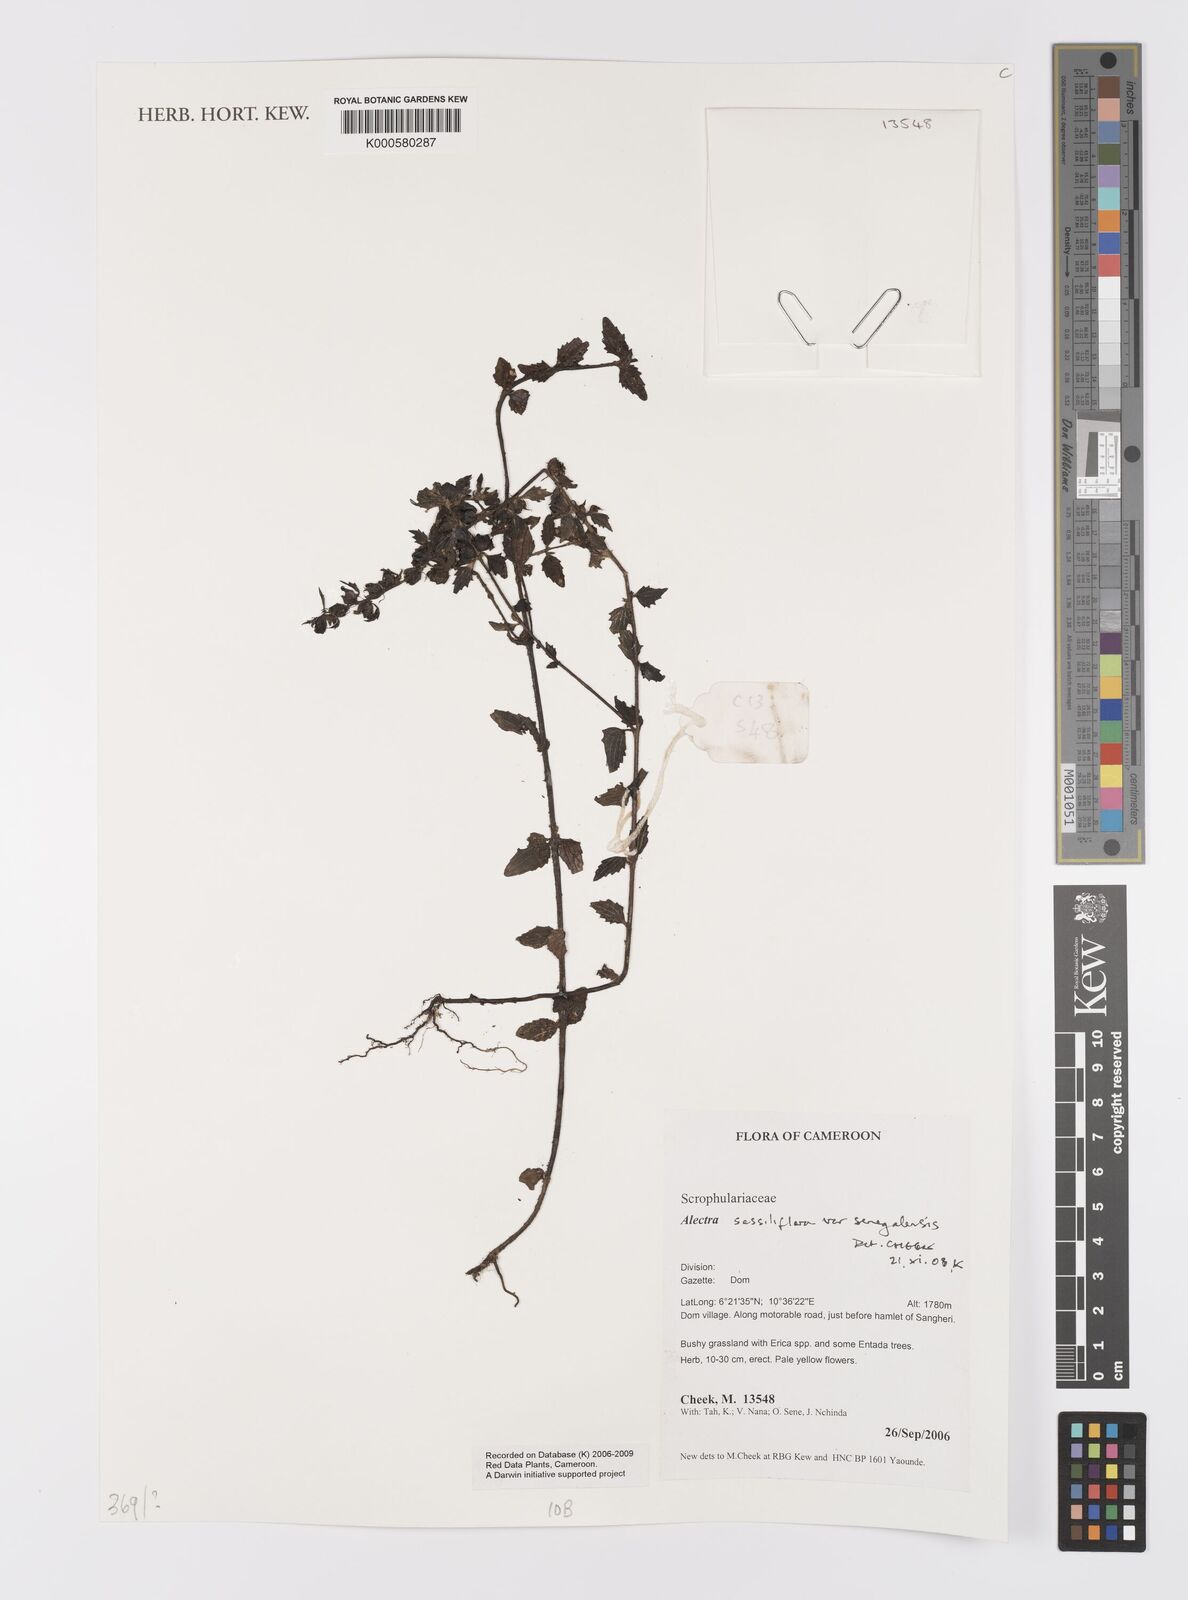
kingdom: Plantae
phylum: Tracheophyta
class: Magnoliopsida
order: Lamiales
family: Orobanchaceae
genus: Alectra
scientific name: Alectra sessiliflora
